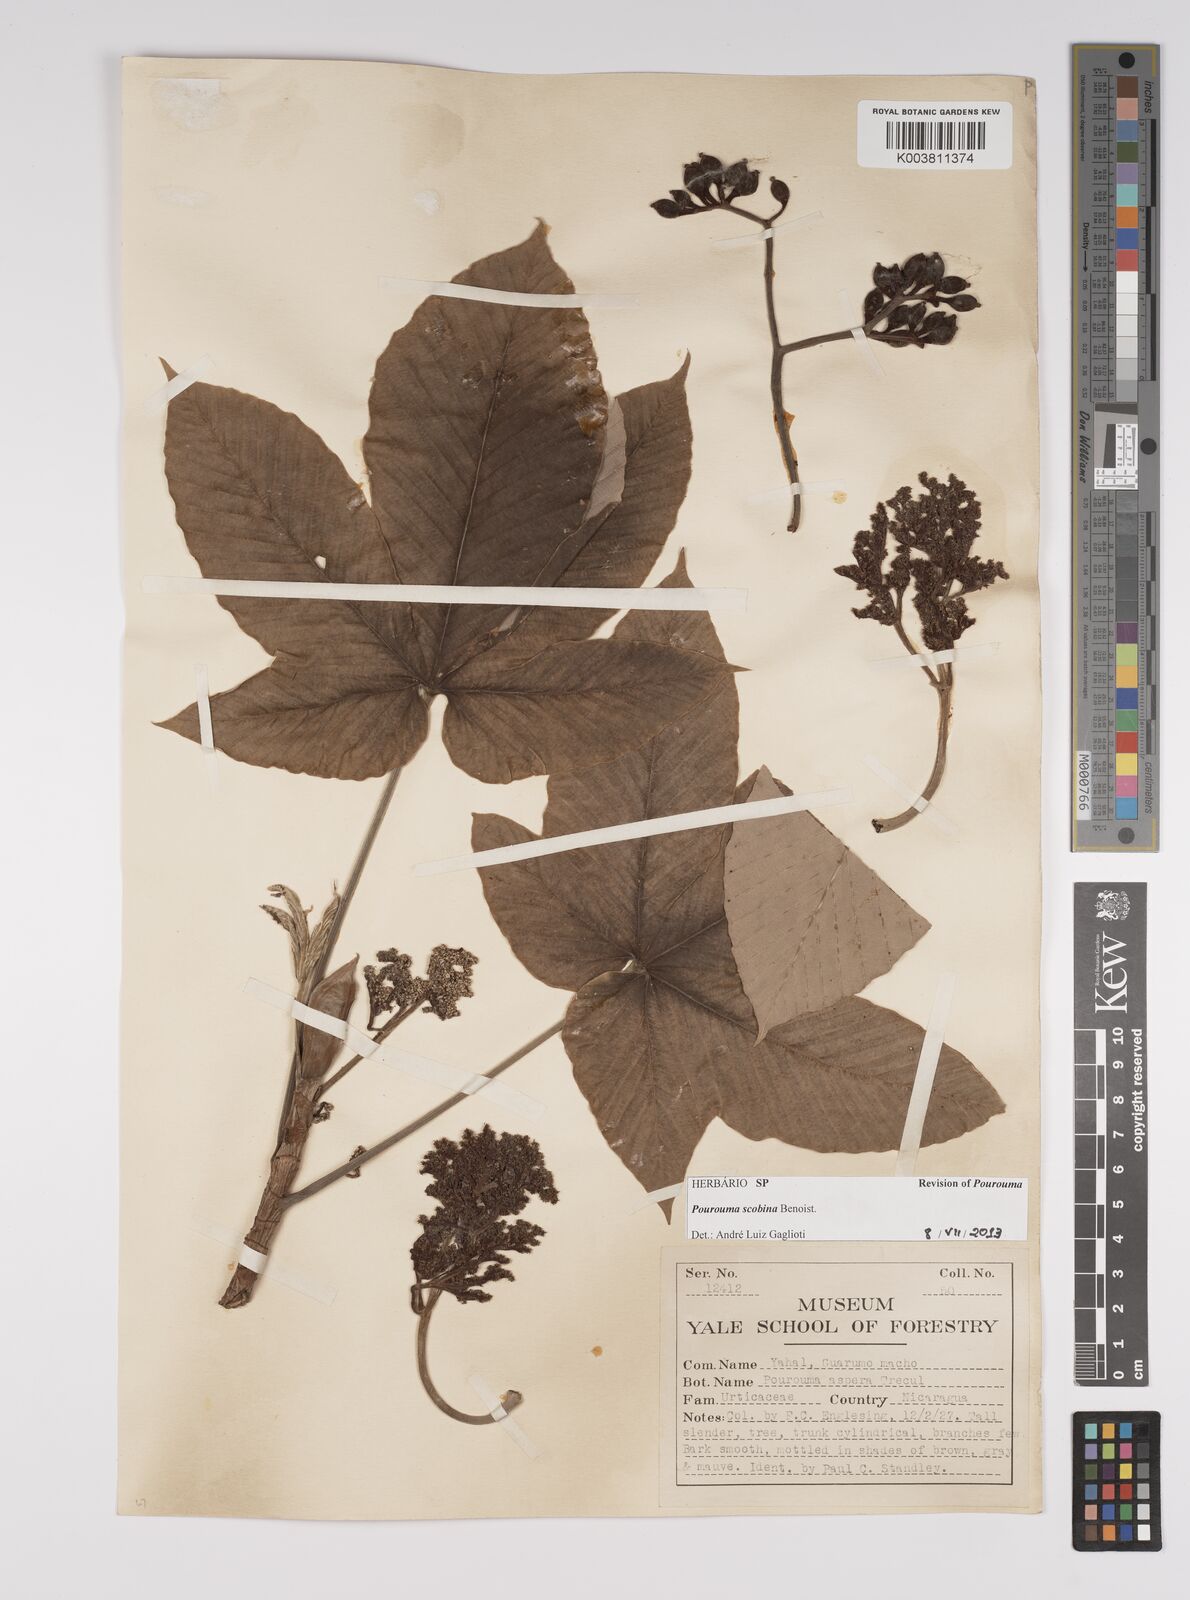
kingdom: Plantae
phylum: Tracheophyta
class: Magnoliopsida
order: Rosales
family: Urticaceae
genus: Pourouma
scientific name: Pourouma bicolor
